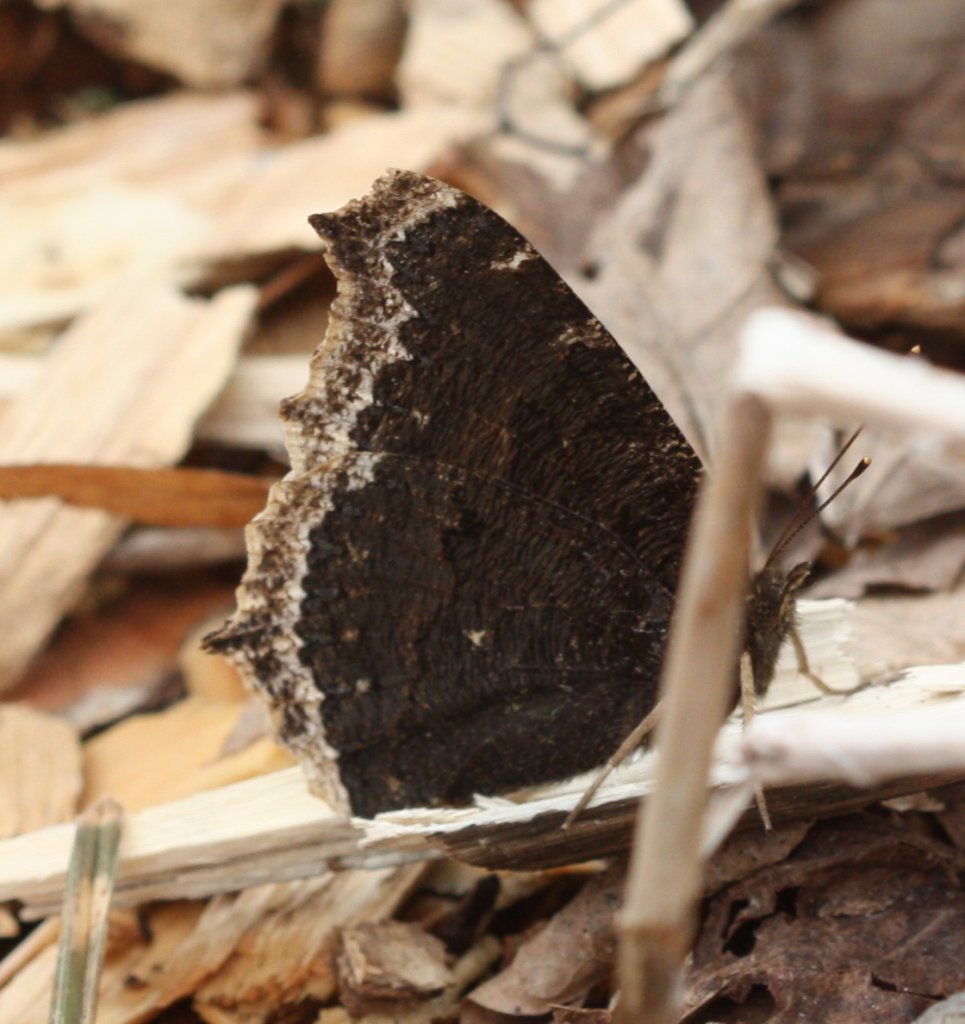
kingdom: Animalia
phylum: Arthropoda
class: Insecta
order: Lepidoptera
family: Nymphalidae
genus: Nymphalis
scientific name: Nymphalis antiopa
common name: Mourning Cloak
